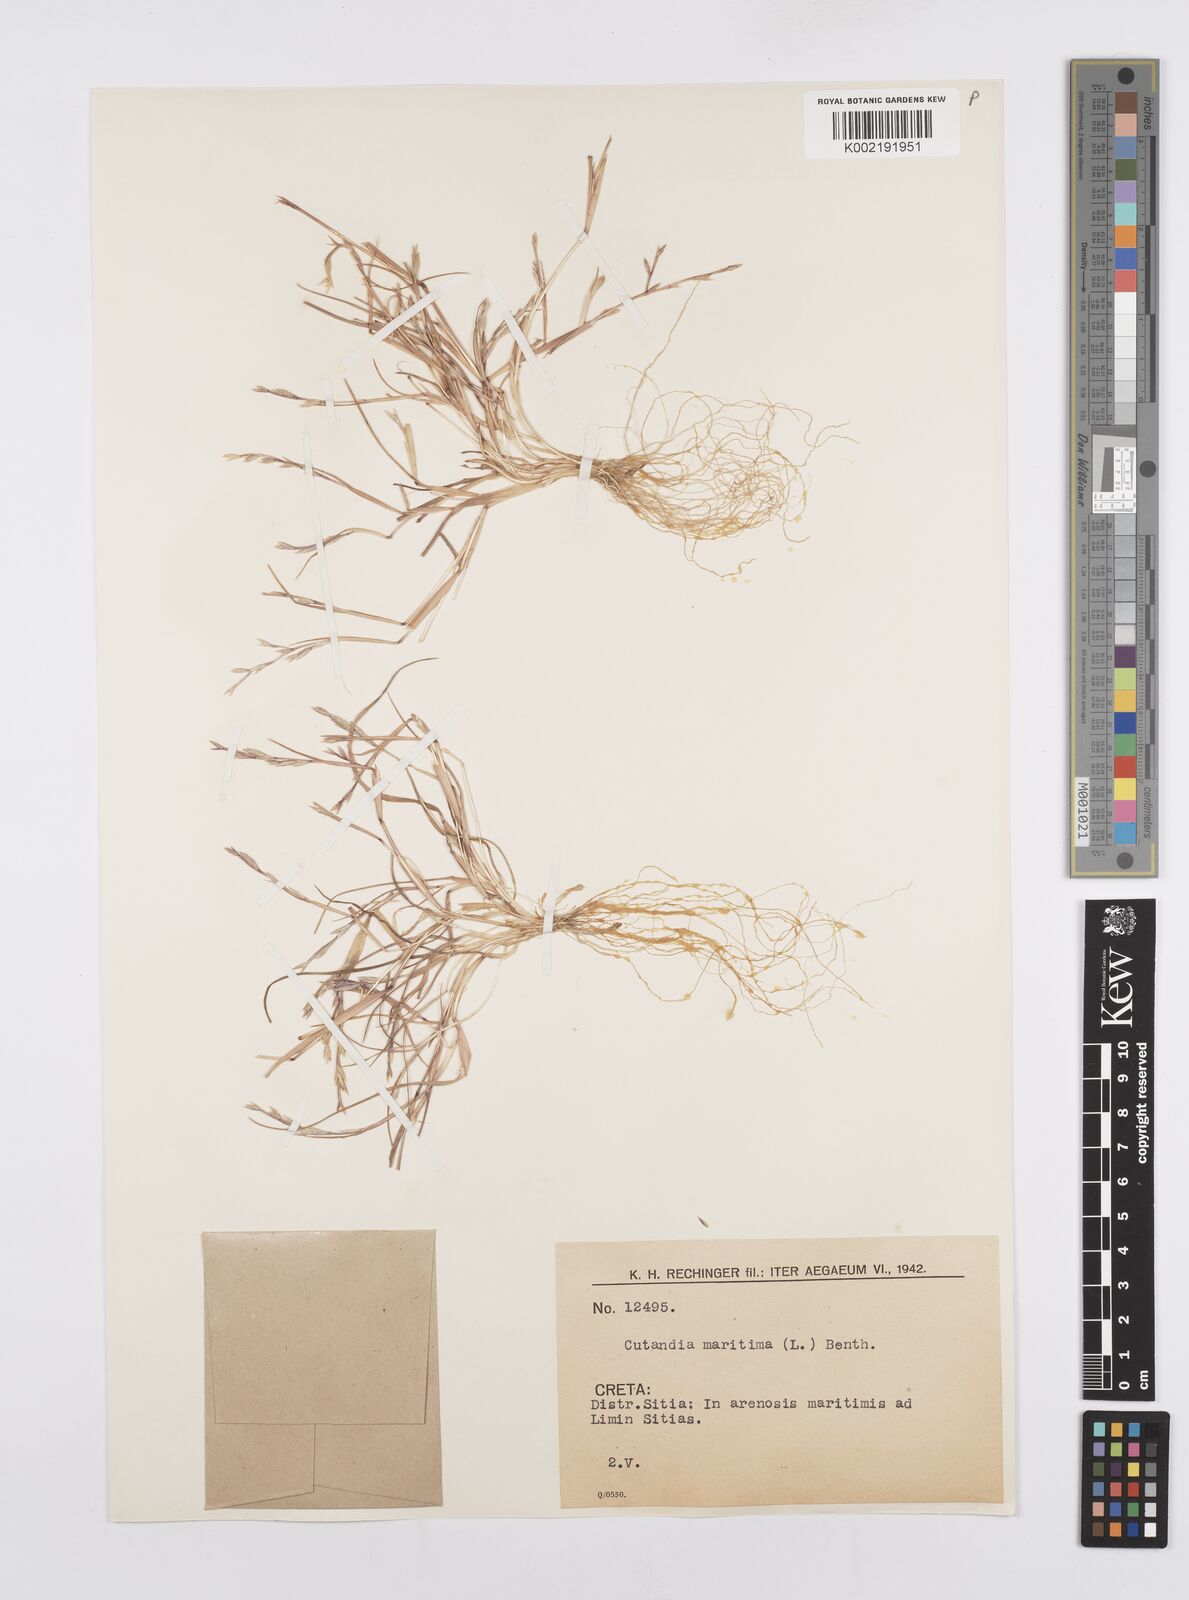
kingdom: Plantae
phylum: Tracheophyta
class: Liliopsida
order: Poales
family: Poaceae
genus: Cutandia
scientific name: Cutandia maritima
